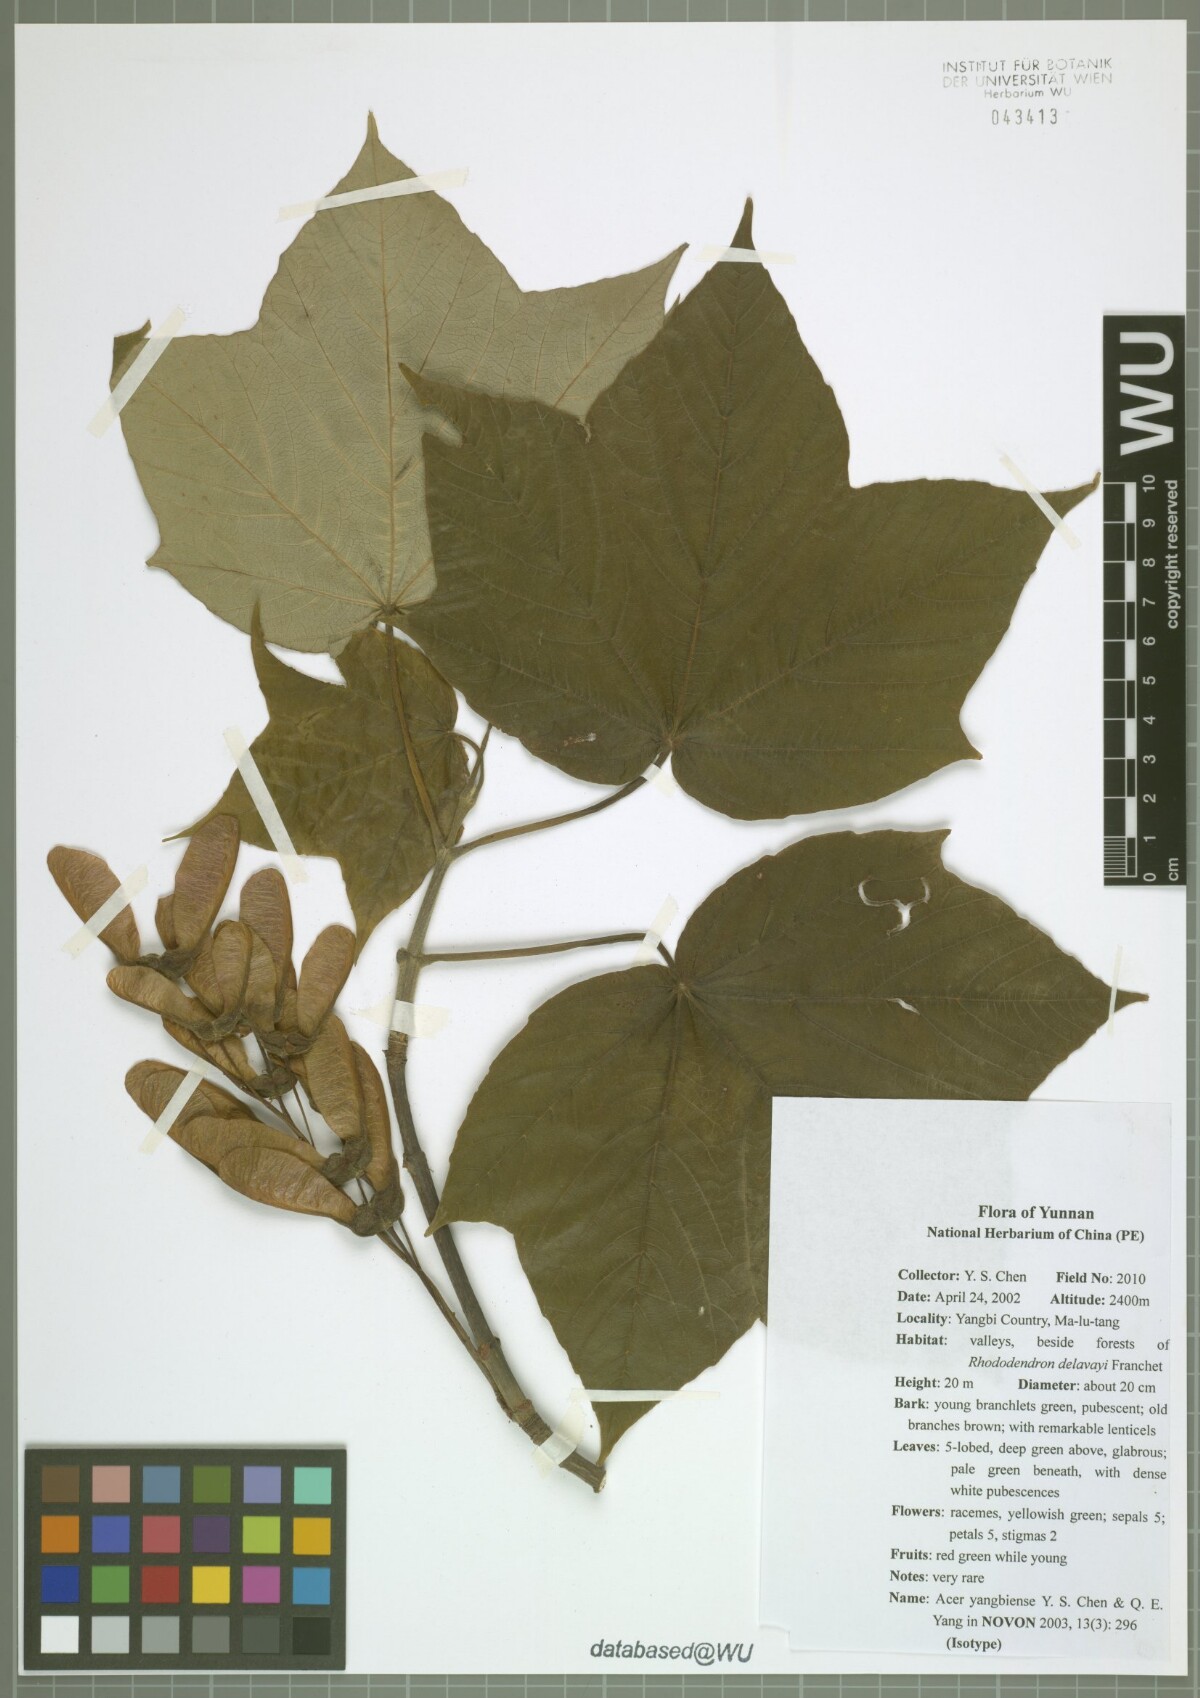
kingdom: Plantae
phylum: Tracheophyta
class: Magnoliopsida
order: Sapindales
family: Sapindaceae
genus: Acer
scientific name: Acer yangbiense
